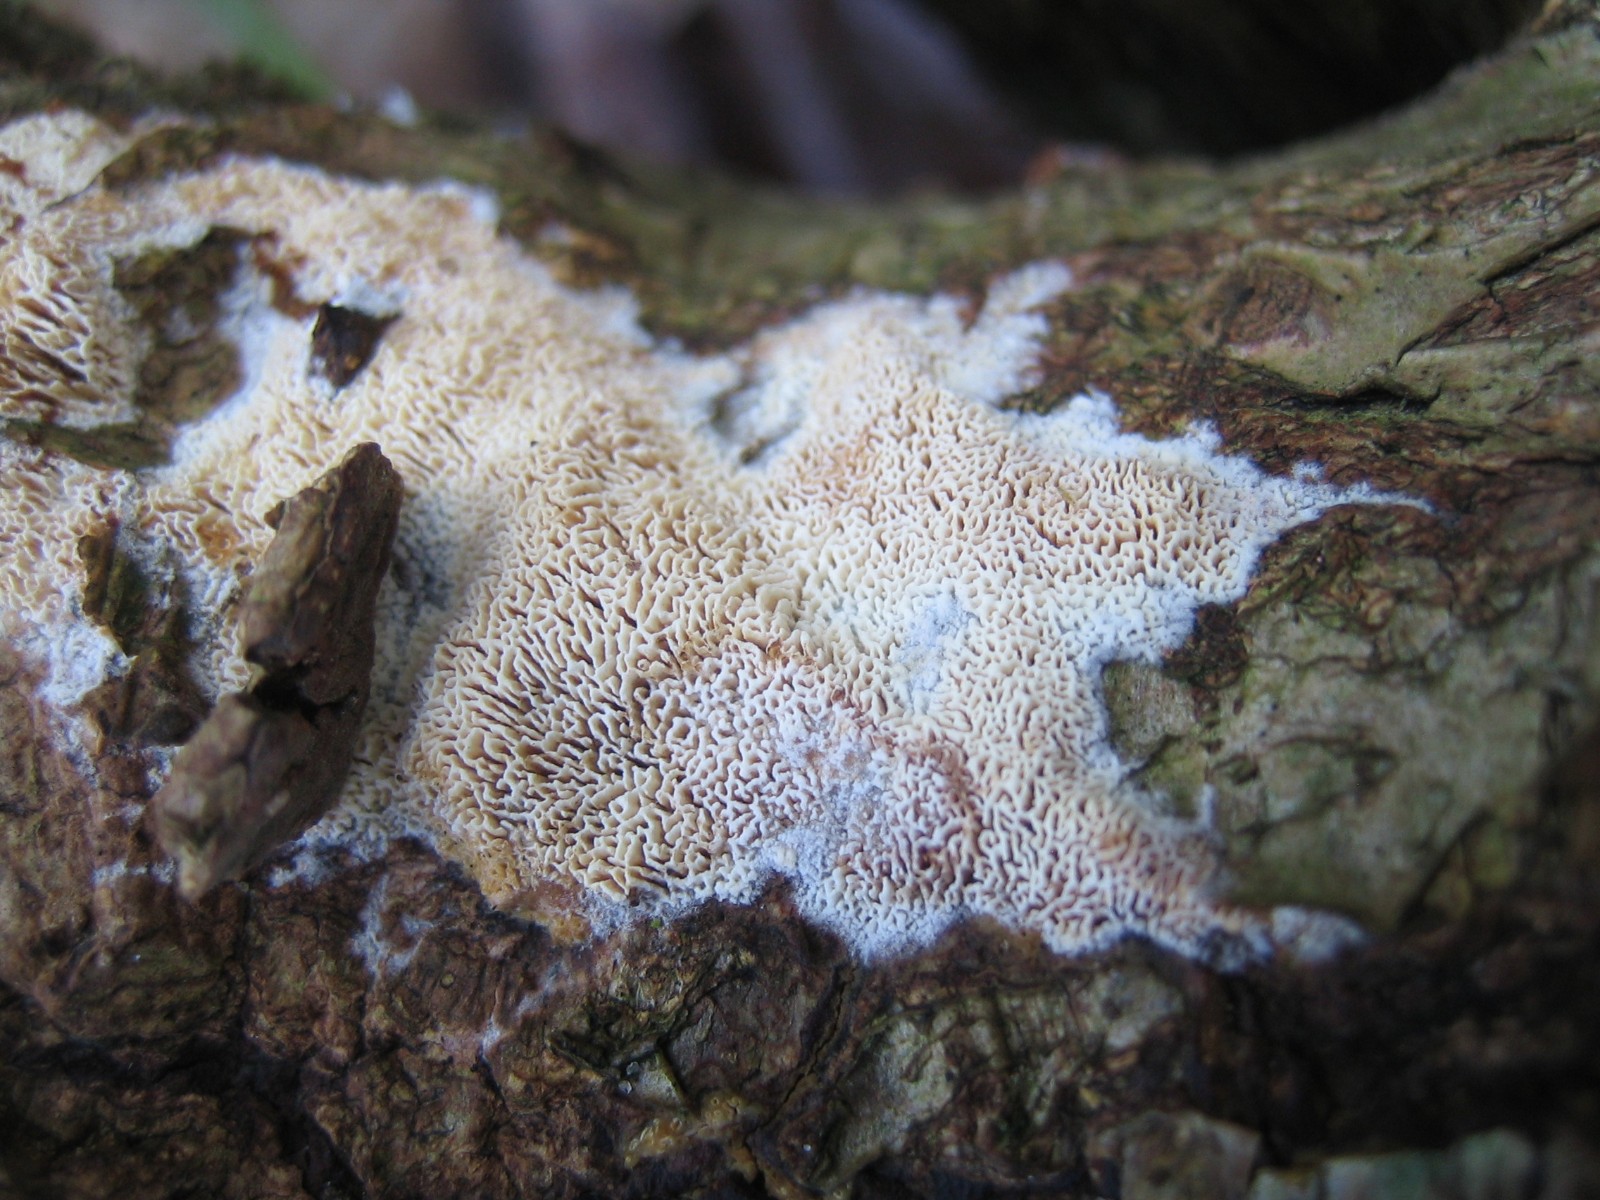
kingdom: Fungi
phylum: Basidiomycota
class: Agaricomycetes
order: Hymenochaetales
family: Schizoporaceae
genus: Xylodon
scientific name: Xylodon subtropicus
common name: labyrint-tandsvamp
